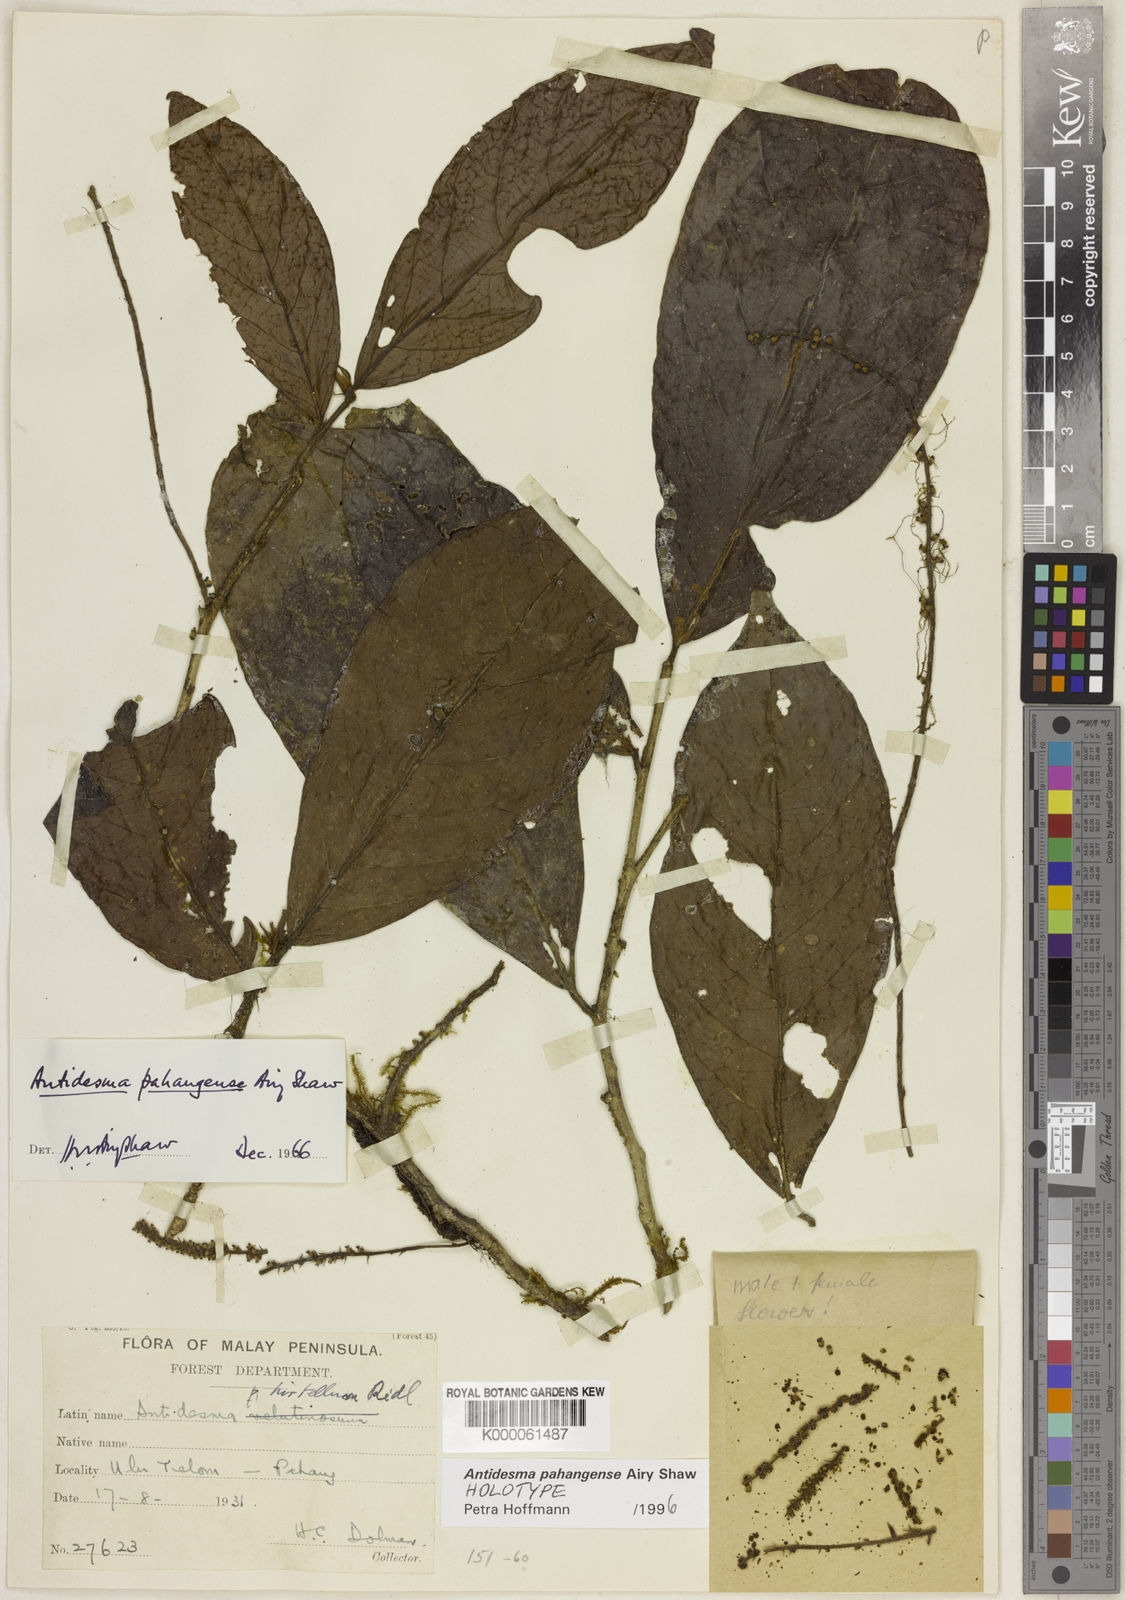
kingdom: Plantae
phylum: Tracheophyta
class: Magnoliopsida
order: Malpighiales
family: Phyllanthaceae
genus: Antidesma
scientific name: Antidesma pahangense
